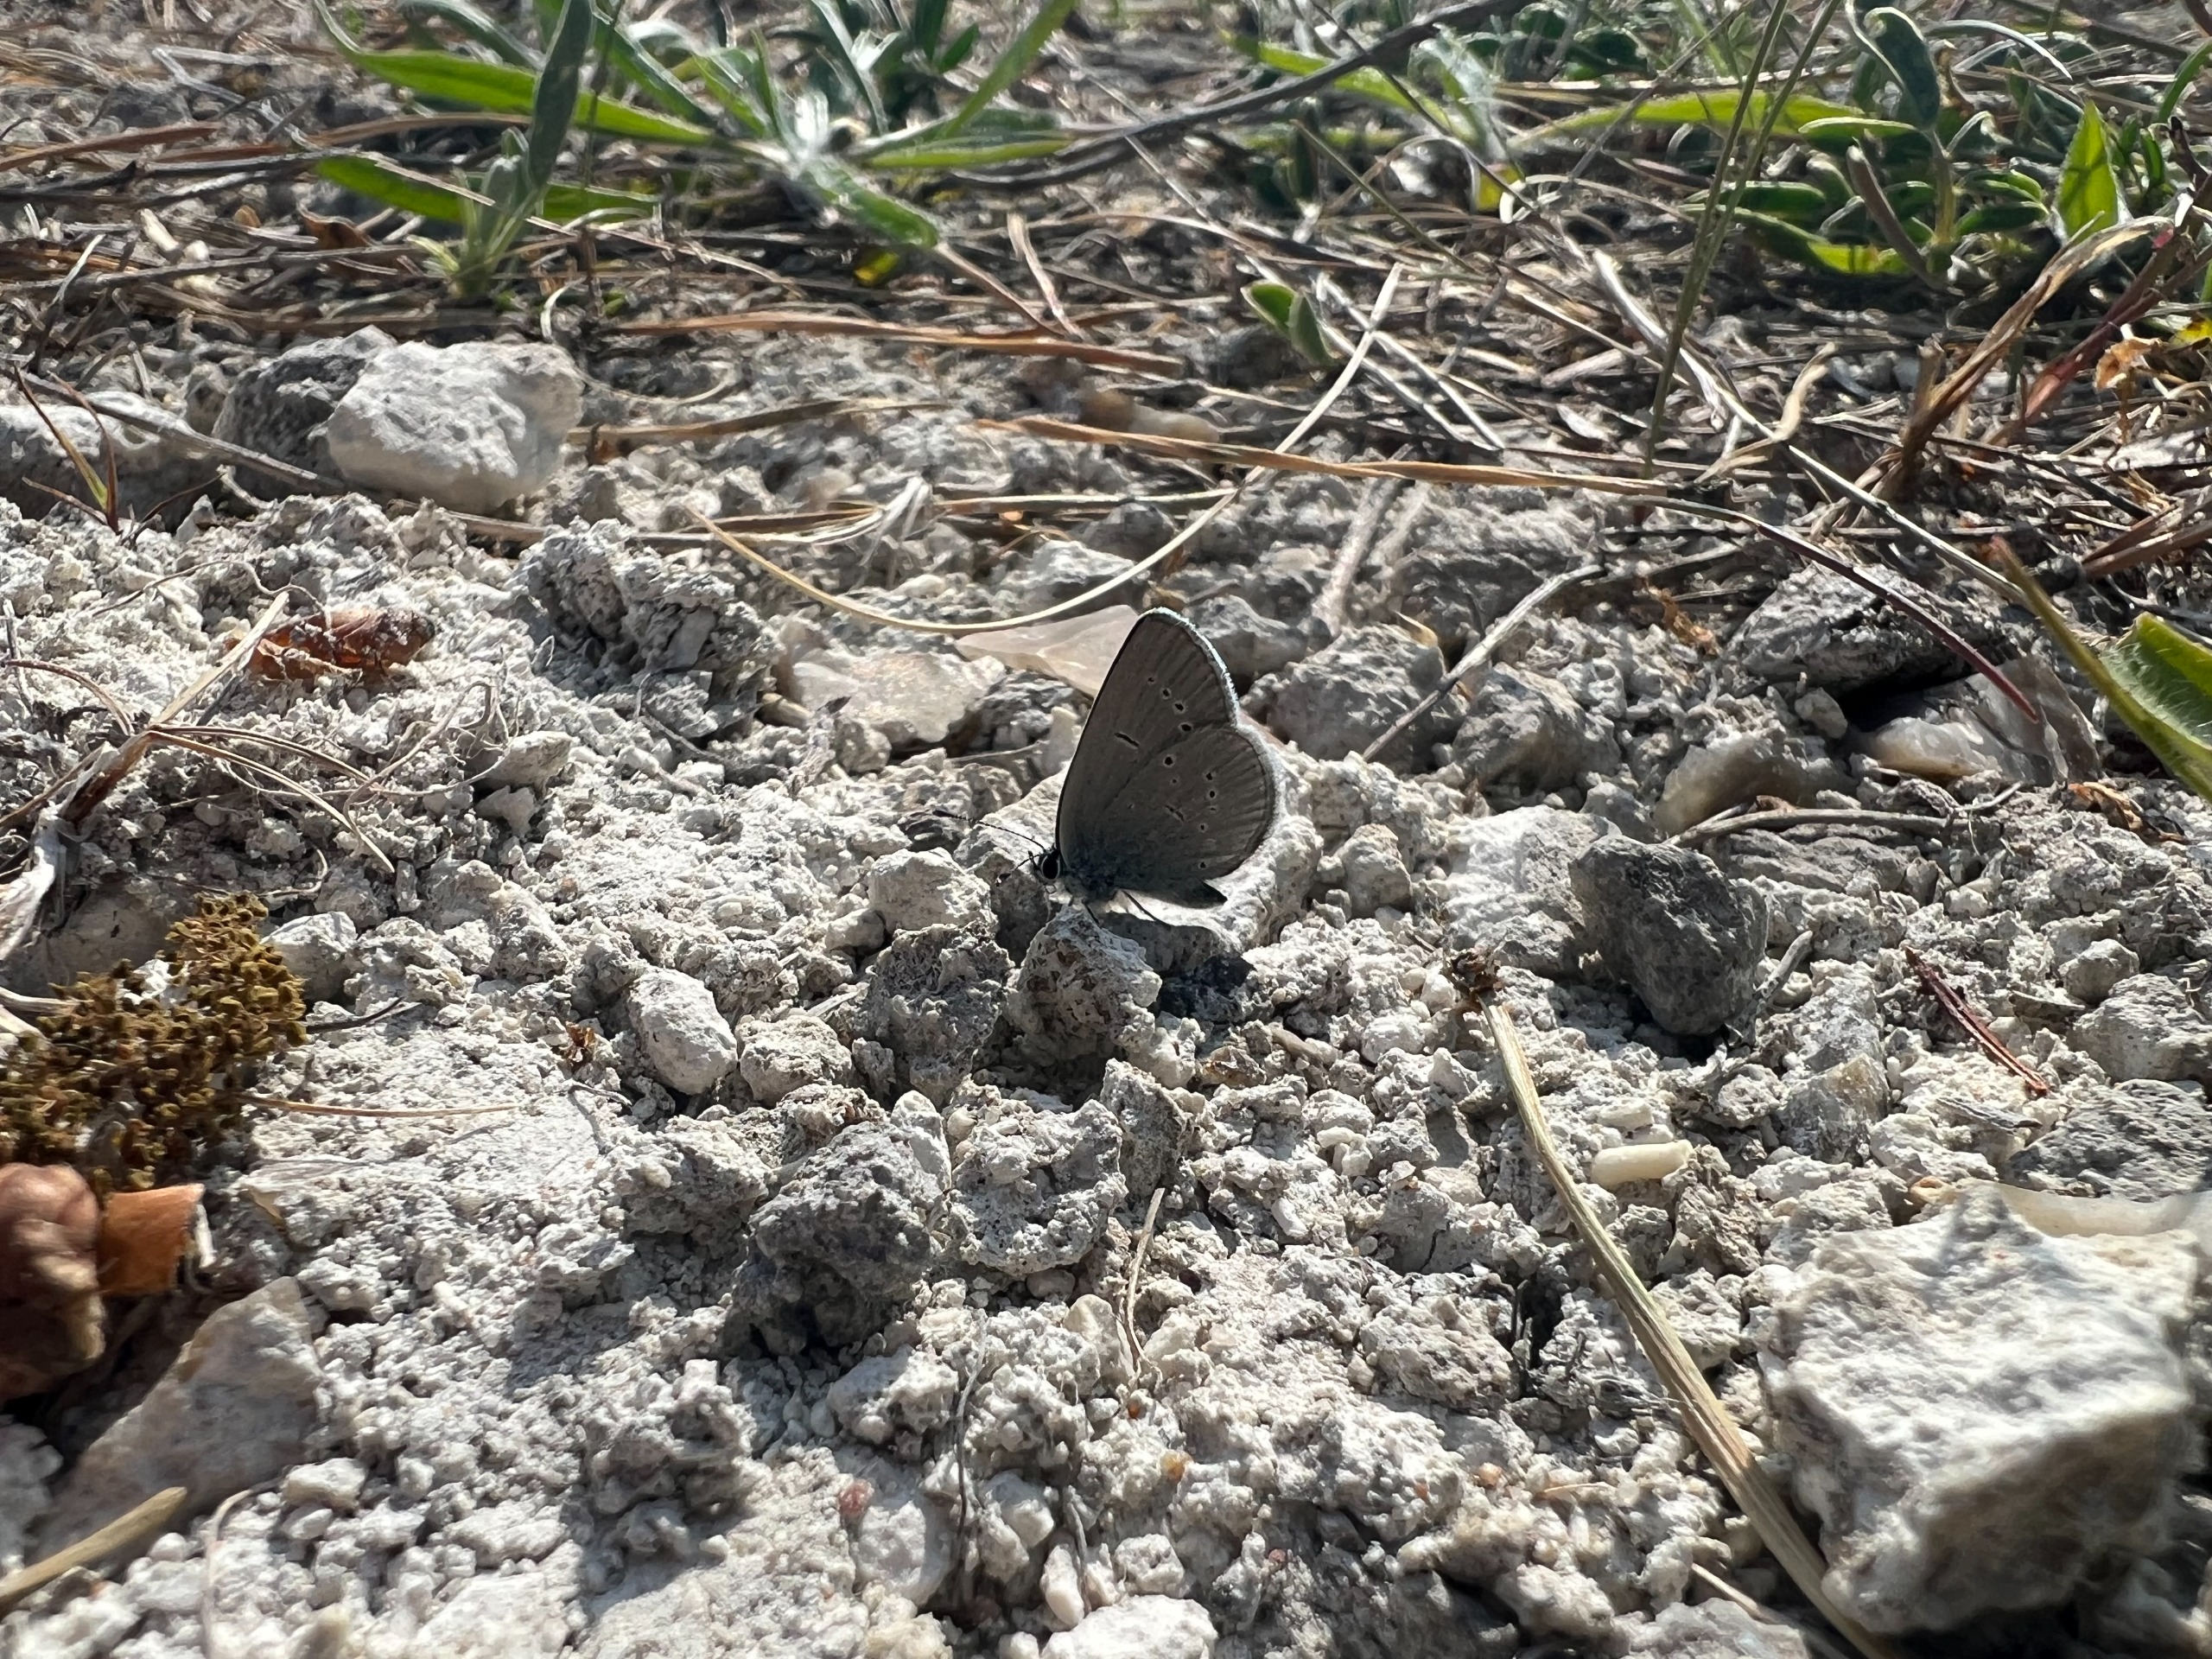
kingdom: Animalia
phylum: Arthropoda
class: Insecta
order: Lepidoptera
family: Lycaenidae
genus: Cupido
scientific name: Cupido minimus
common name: Dværgblåfugl
